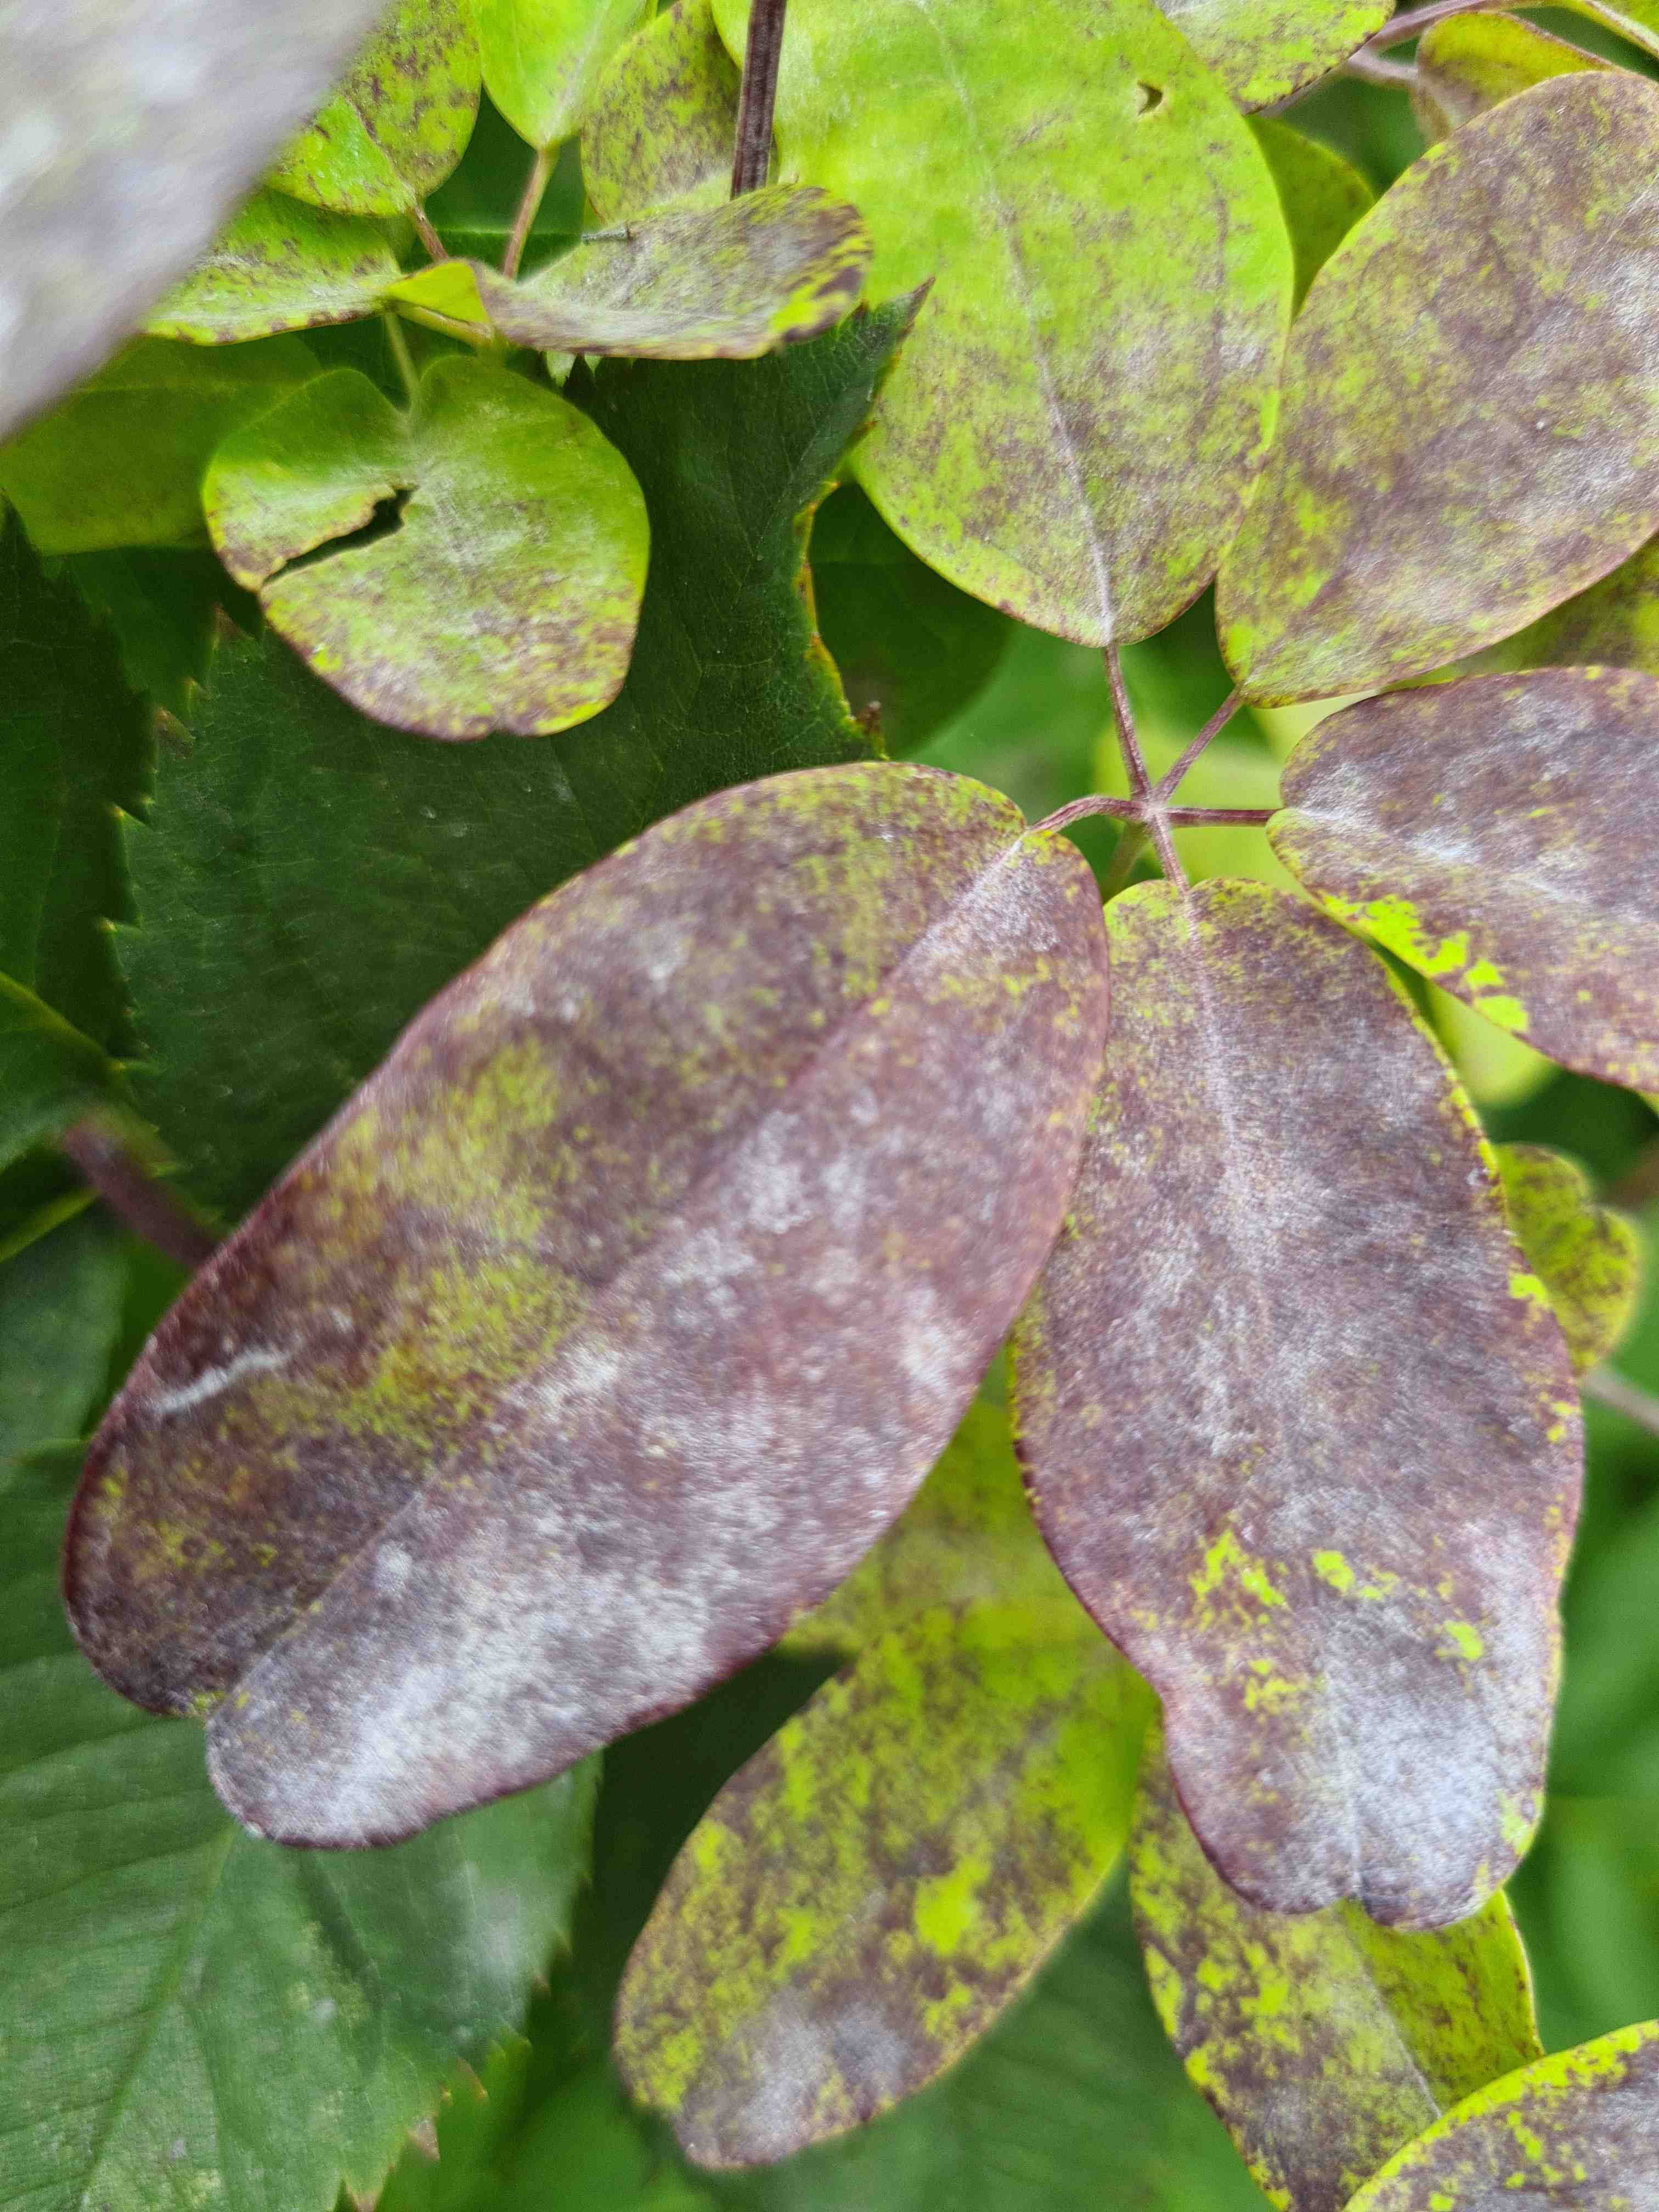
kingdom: Fungi
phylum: Ascomycota
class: Leotiomycetes
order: Helotiales
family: Erysiphaceae
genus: Erysiphe
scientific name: Erysiphe akebiae
